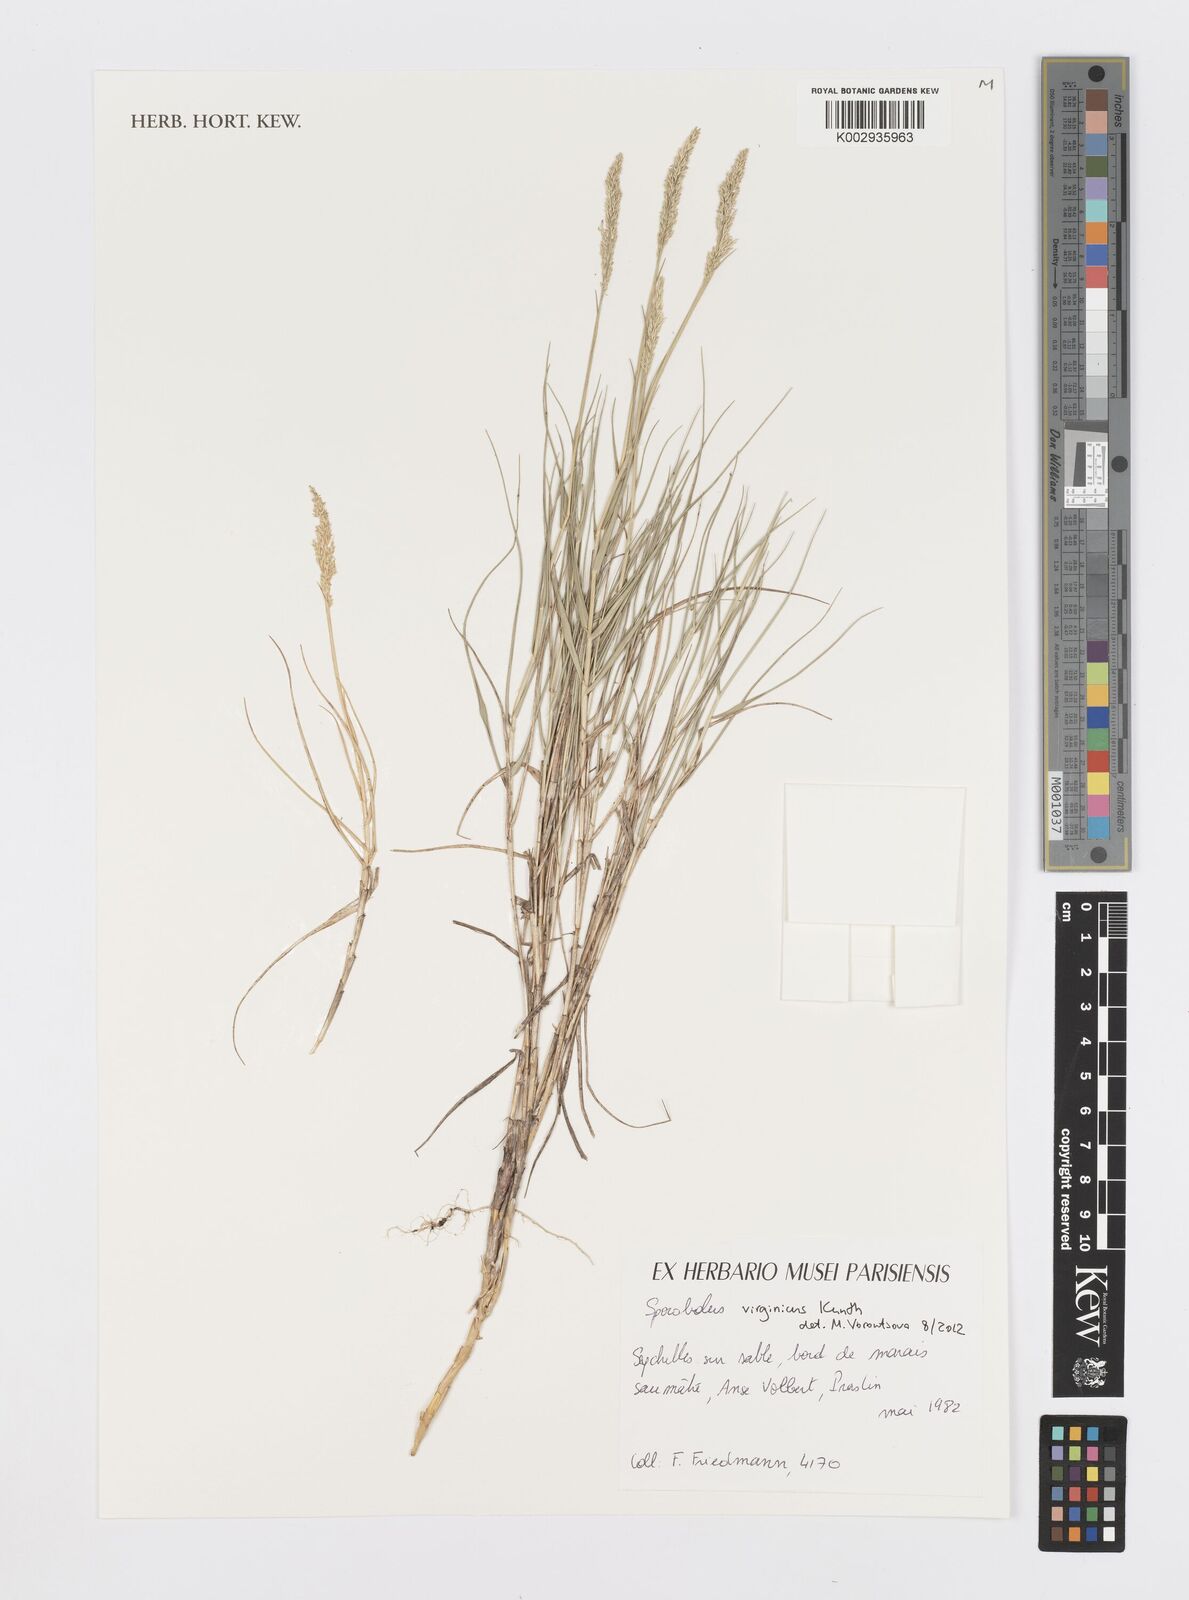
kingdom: Plantae
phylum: Tracheophyta
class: Liliopsida
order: Poales
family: Poaceae
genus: Sporobolus
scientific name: Sporobolus virginicus
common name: Beach dropseed
